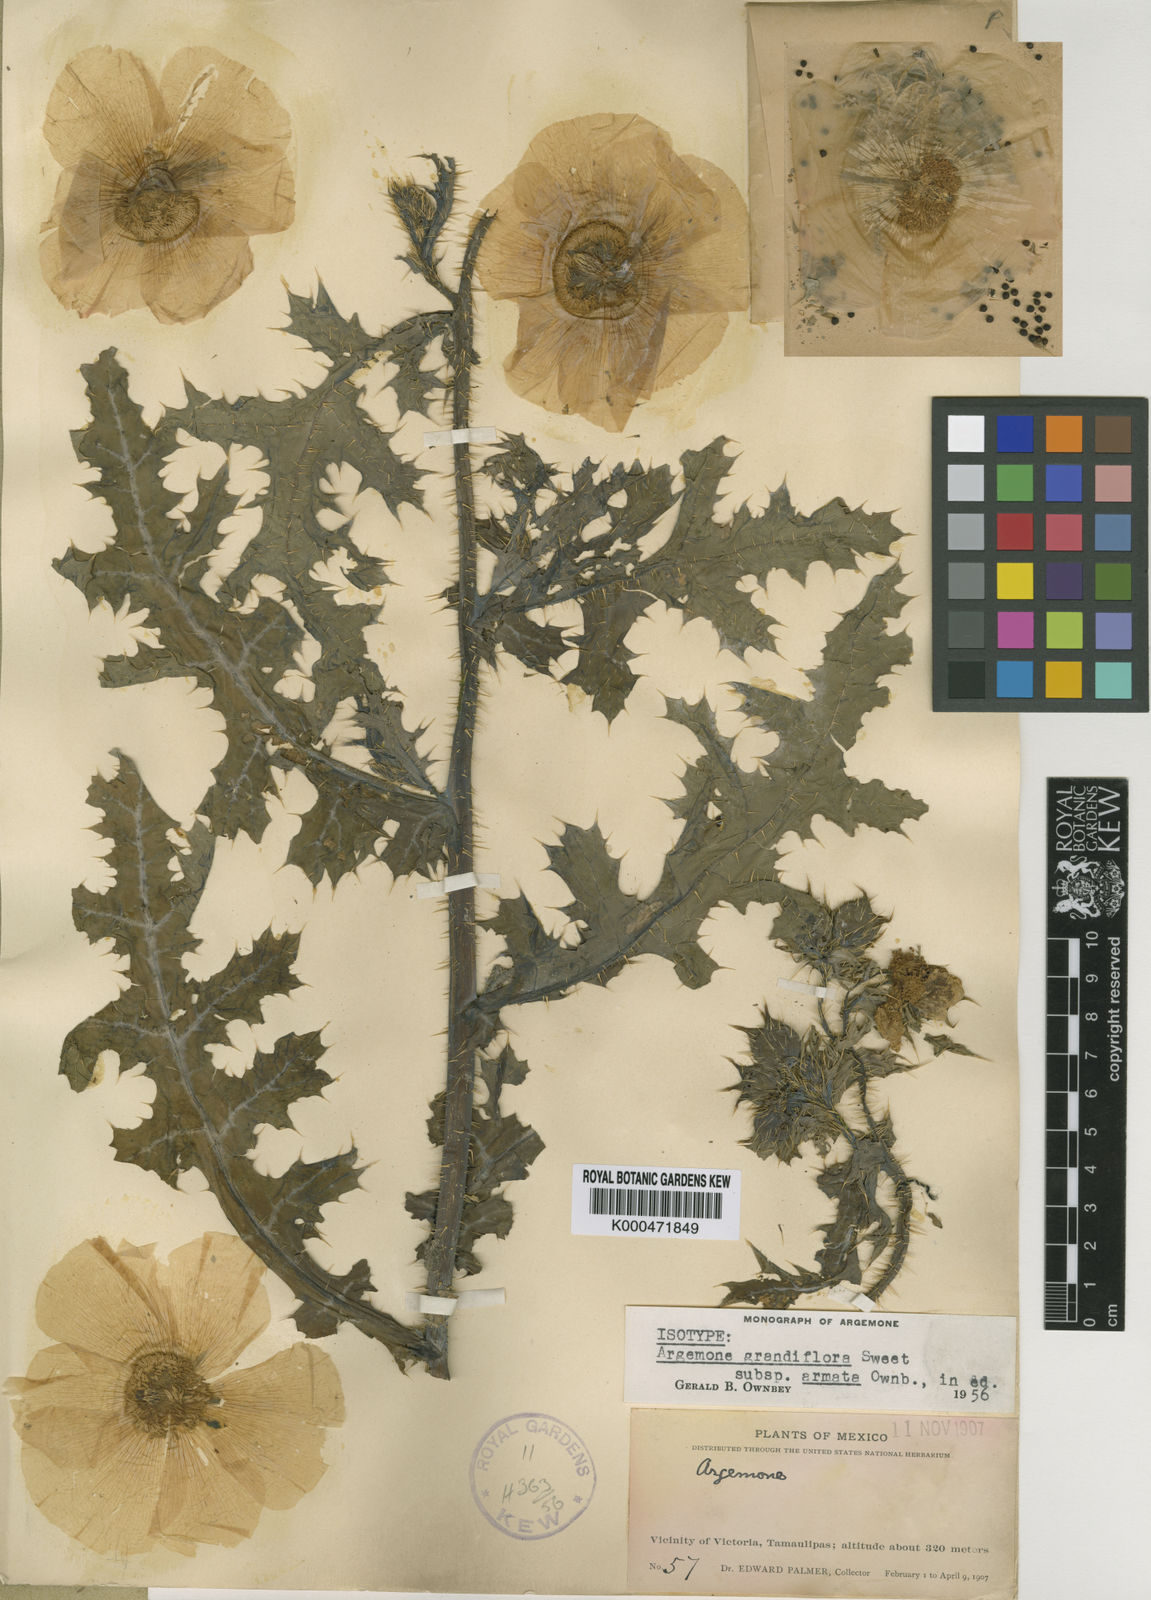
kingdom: Plantae
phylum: Tracheophyta
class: Magnoliopsida
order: Ranunculales
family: Papaveraceae
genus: Argemone
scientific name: Argemone grandiflora
